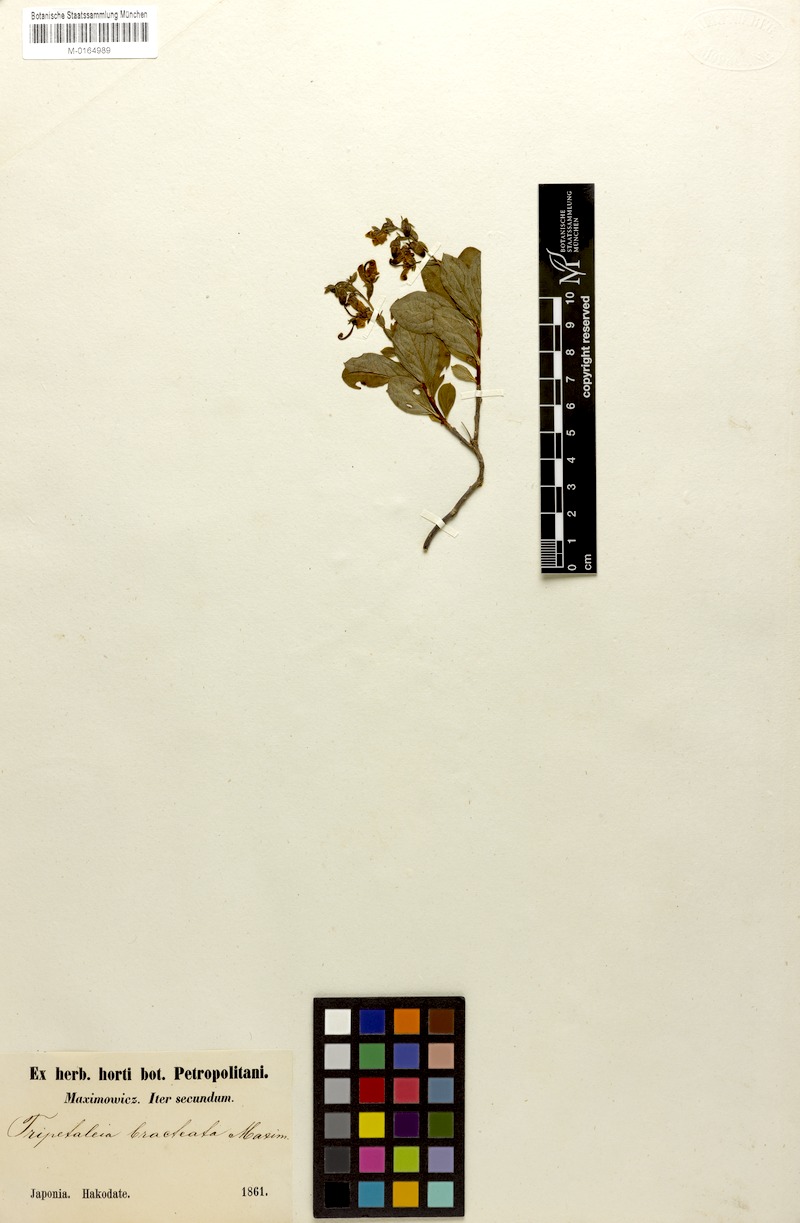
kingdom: Plantae
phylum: Tracheophyta
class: Magnoliopsida
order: Ericales
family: Ericaceae
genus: Elliottia
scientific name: Elliottia bracteata
